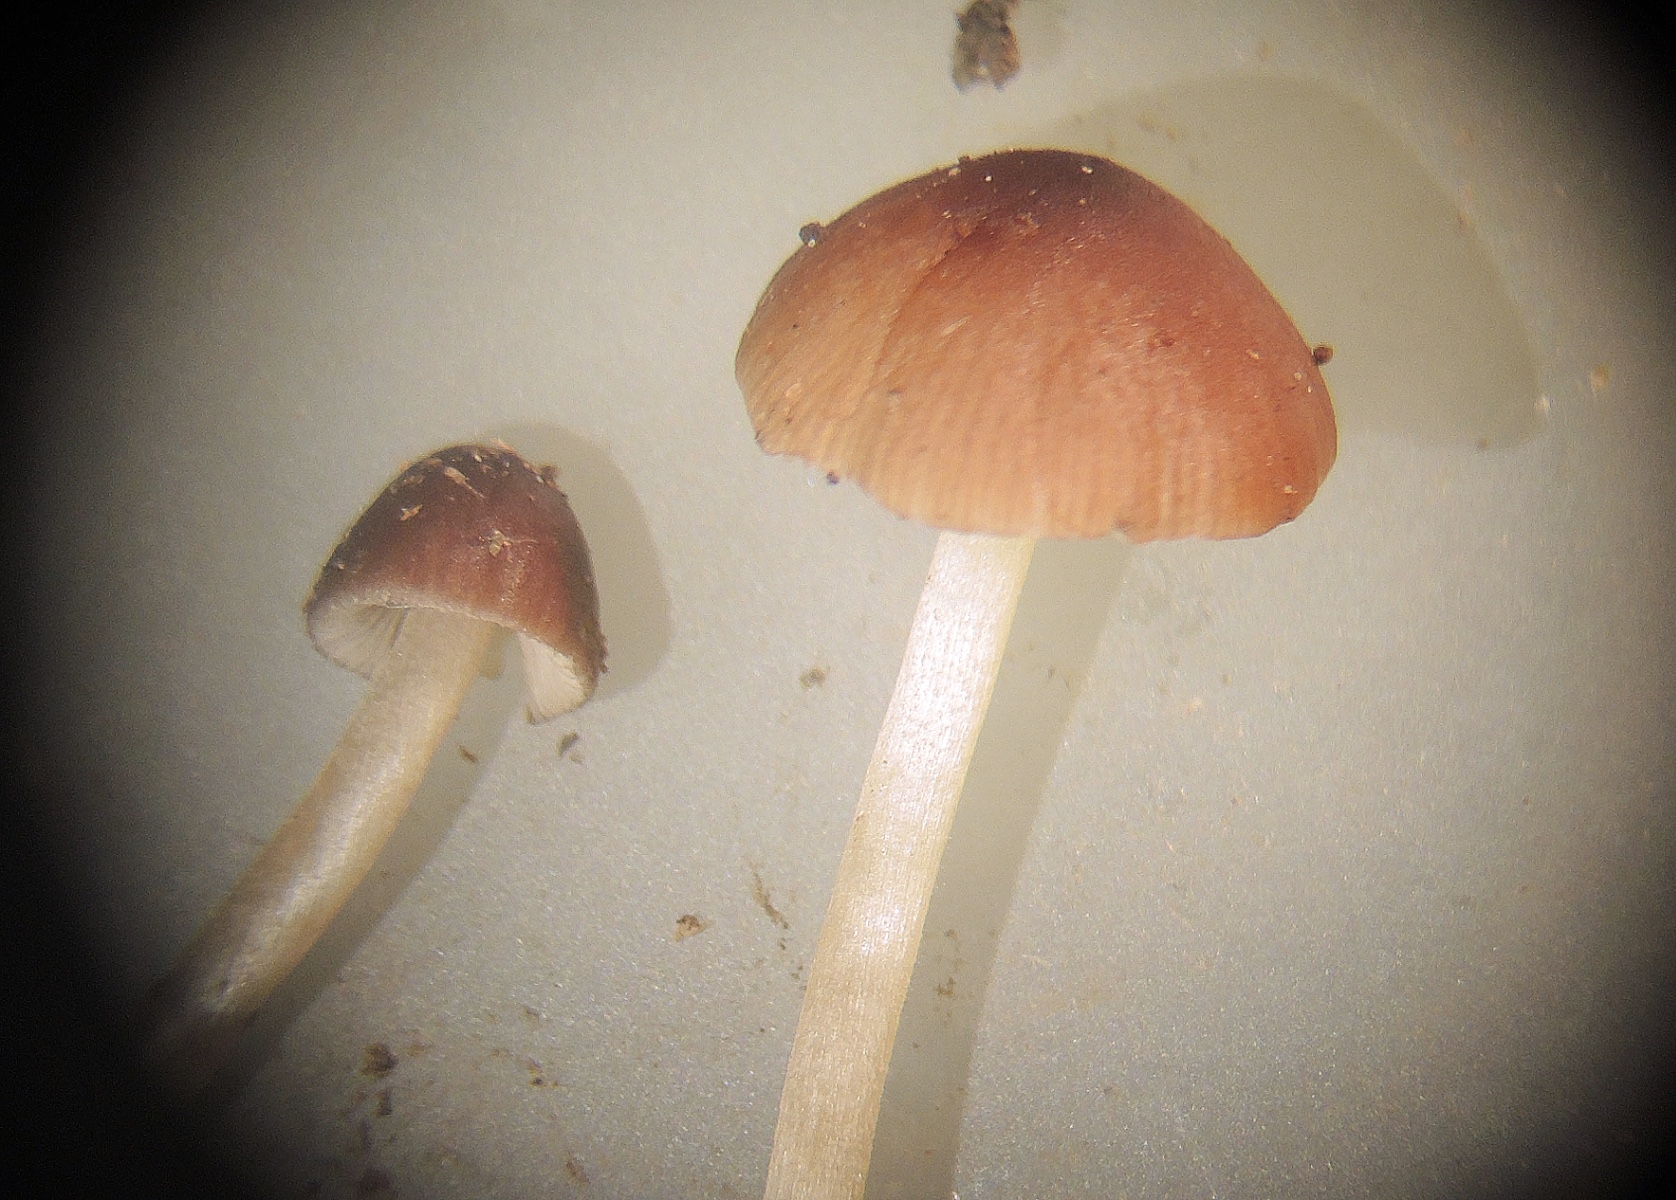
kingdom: Fungi
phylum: Basidiomycota
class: Agaricomycetes
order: Agaricales
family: Bolbitiaceae
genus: Conocybe
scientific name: Conocybe
